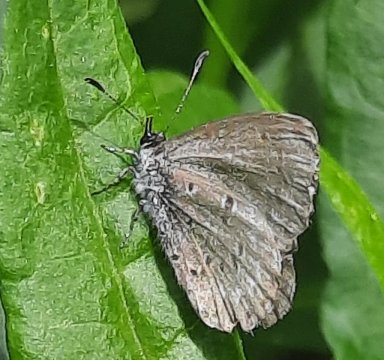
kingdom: Animalia
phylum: Arthropoda
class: Insecta
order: Lepidoptera
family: Lycaenidae
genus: Celastrina
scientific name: Celastrina lucia
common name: Northern Spring Azure
